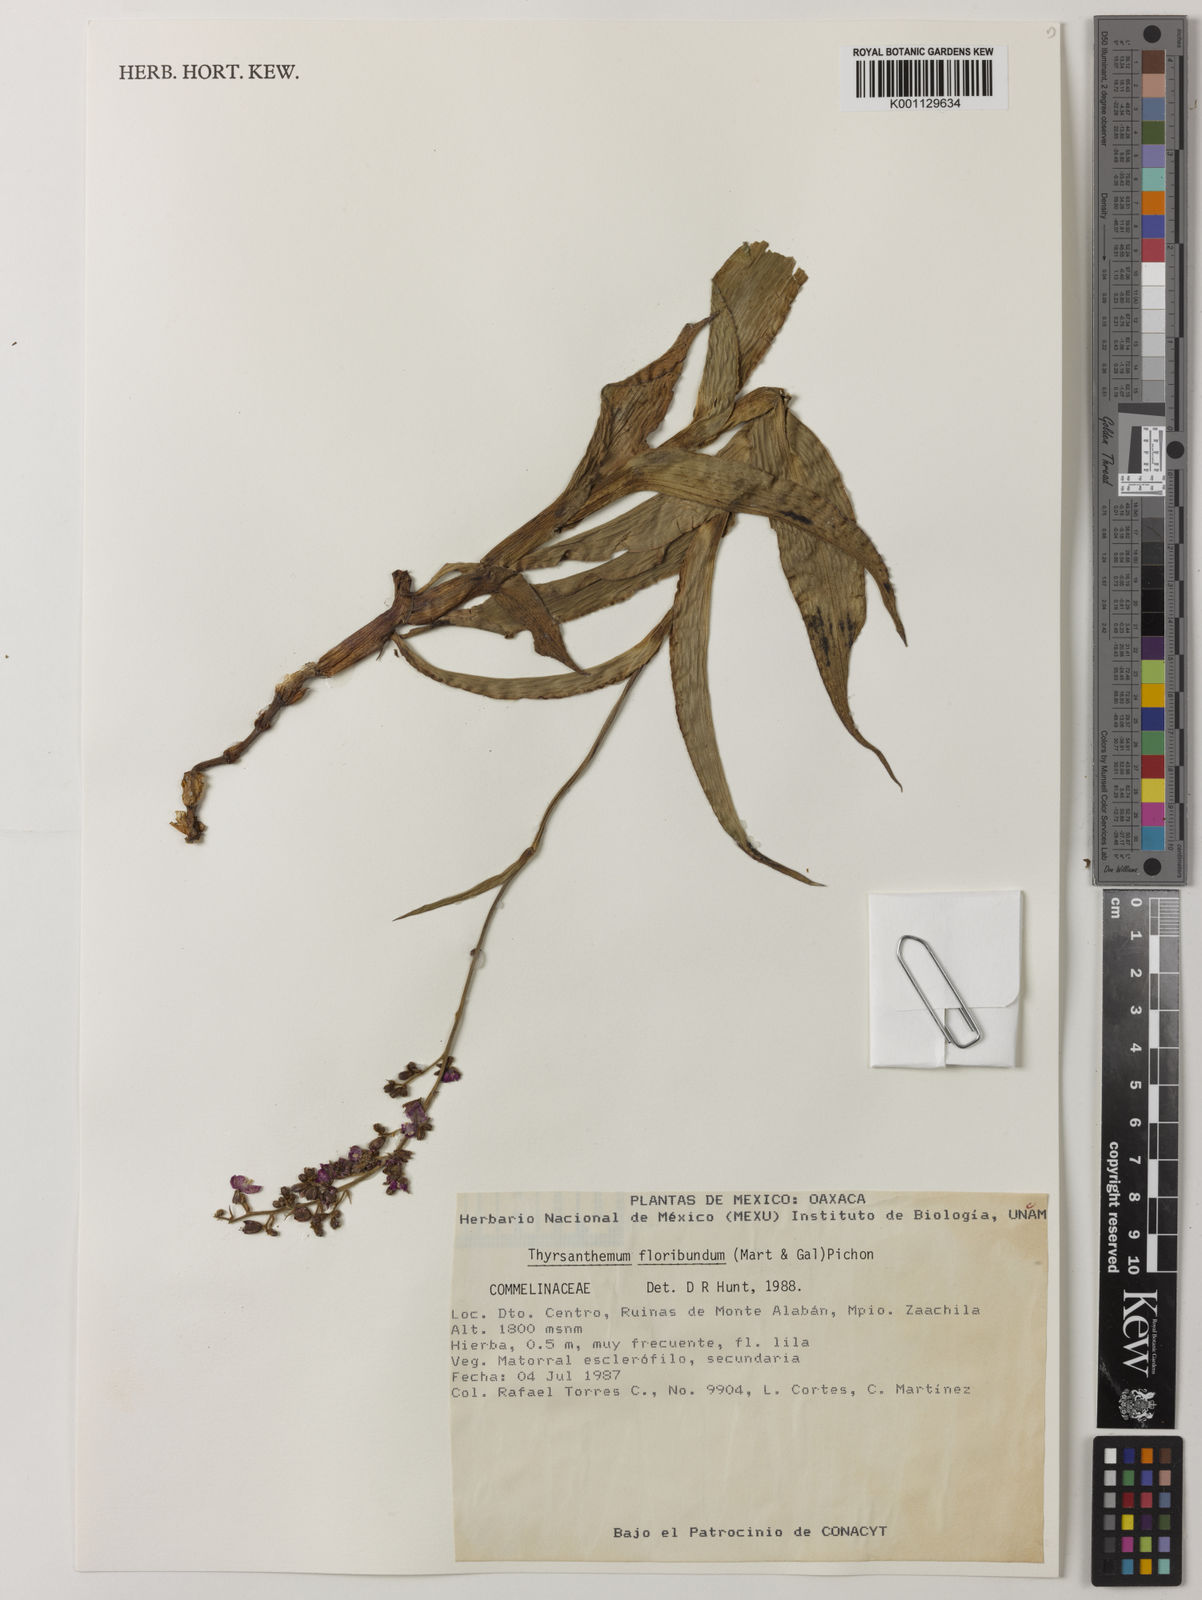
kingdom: Plantae
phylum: Tracheophyta
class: Liliopsida
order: Commelinales
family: Commelinaceae
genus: Thyrsanthemum
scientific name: Thyrsanthemum floribundum
